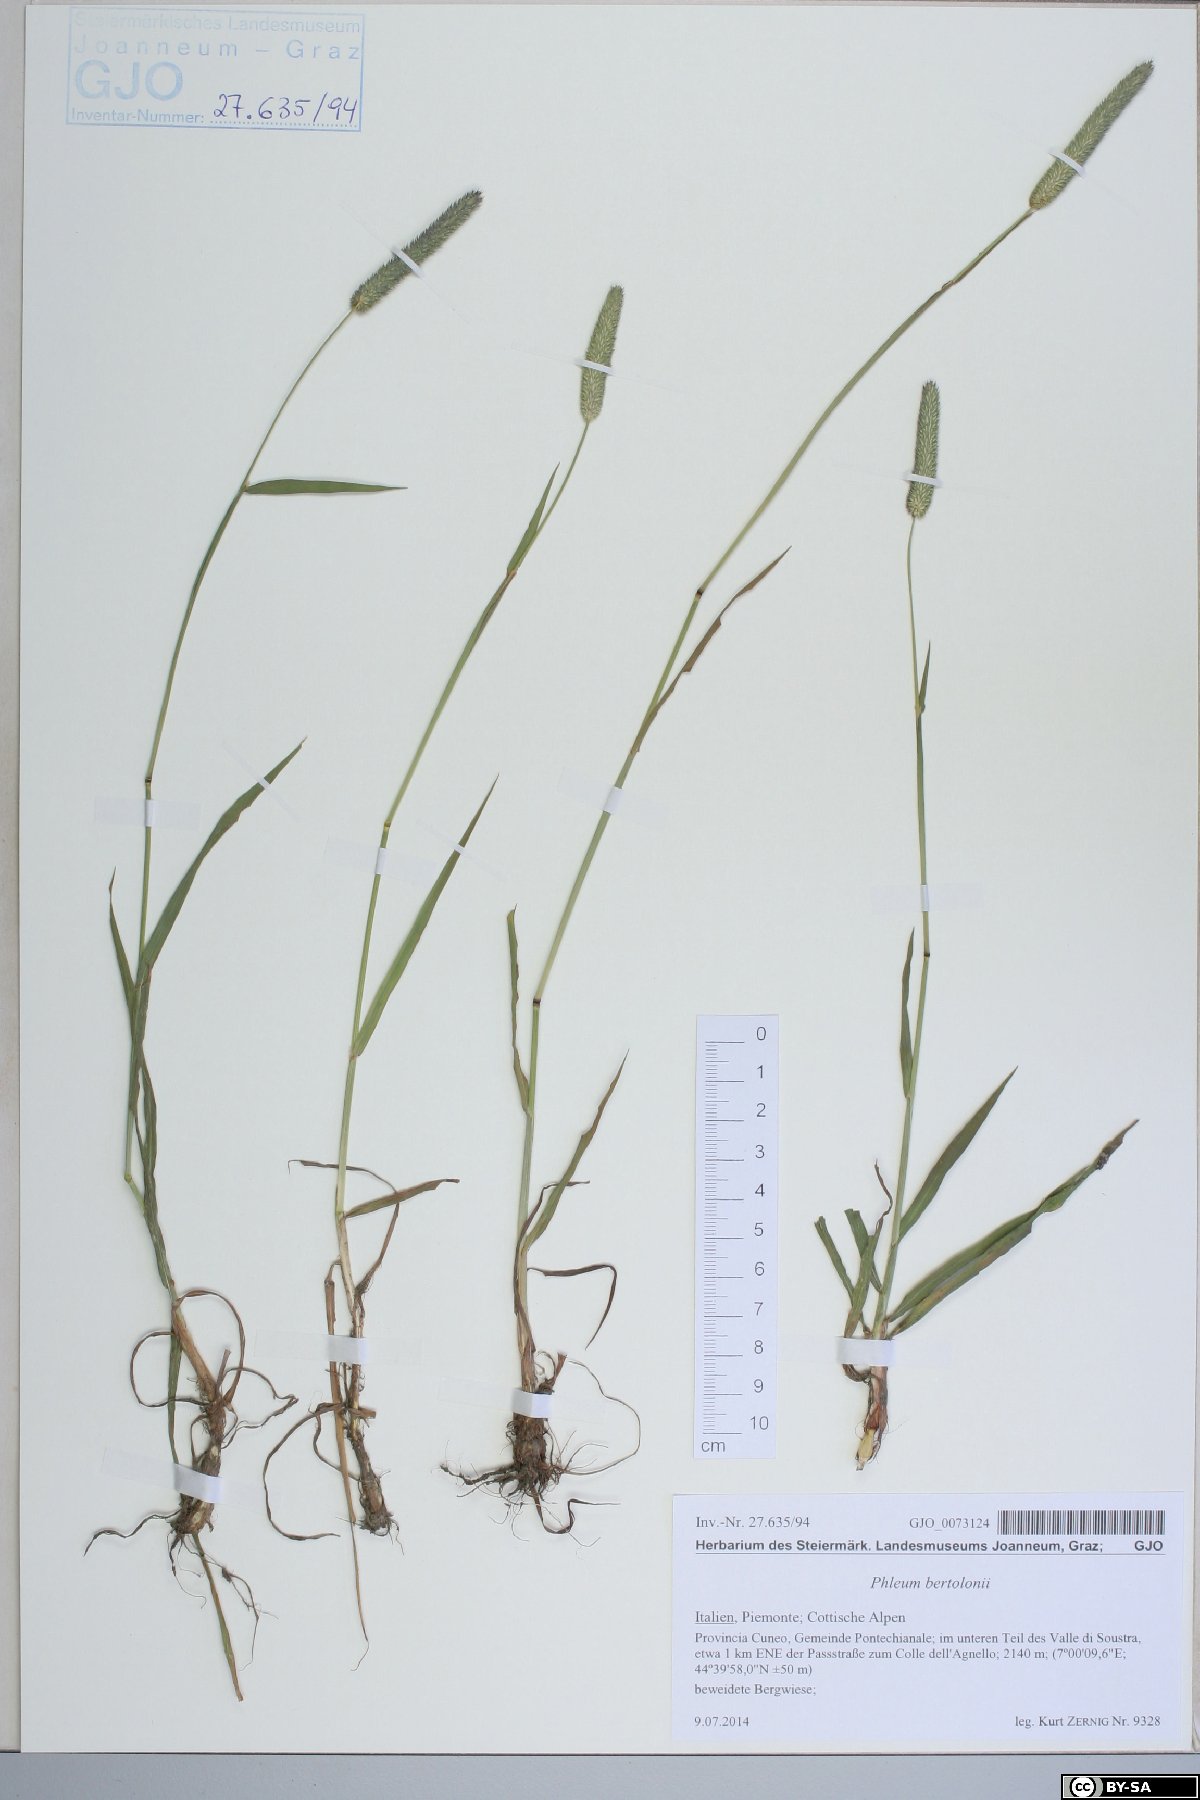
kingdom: Plantae
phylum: Tracheophyta
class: Liliopsida
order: Poales
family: Poaceae
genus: Phleum
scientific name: Phleum bertolonii
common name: Smaller cat's-tail
